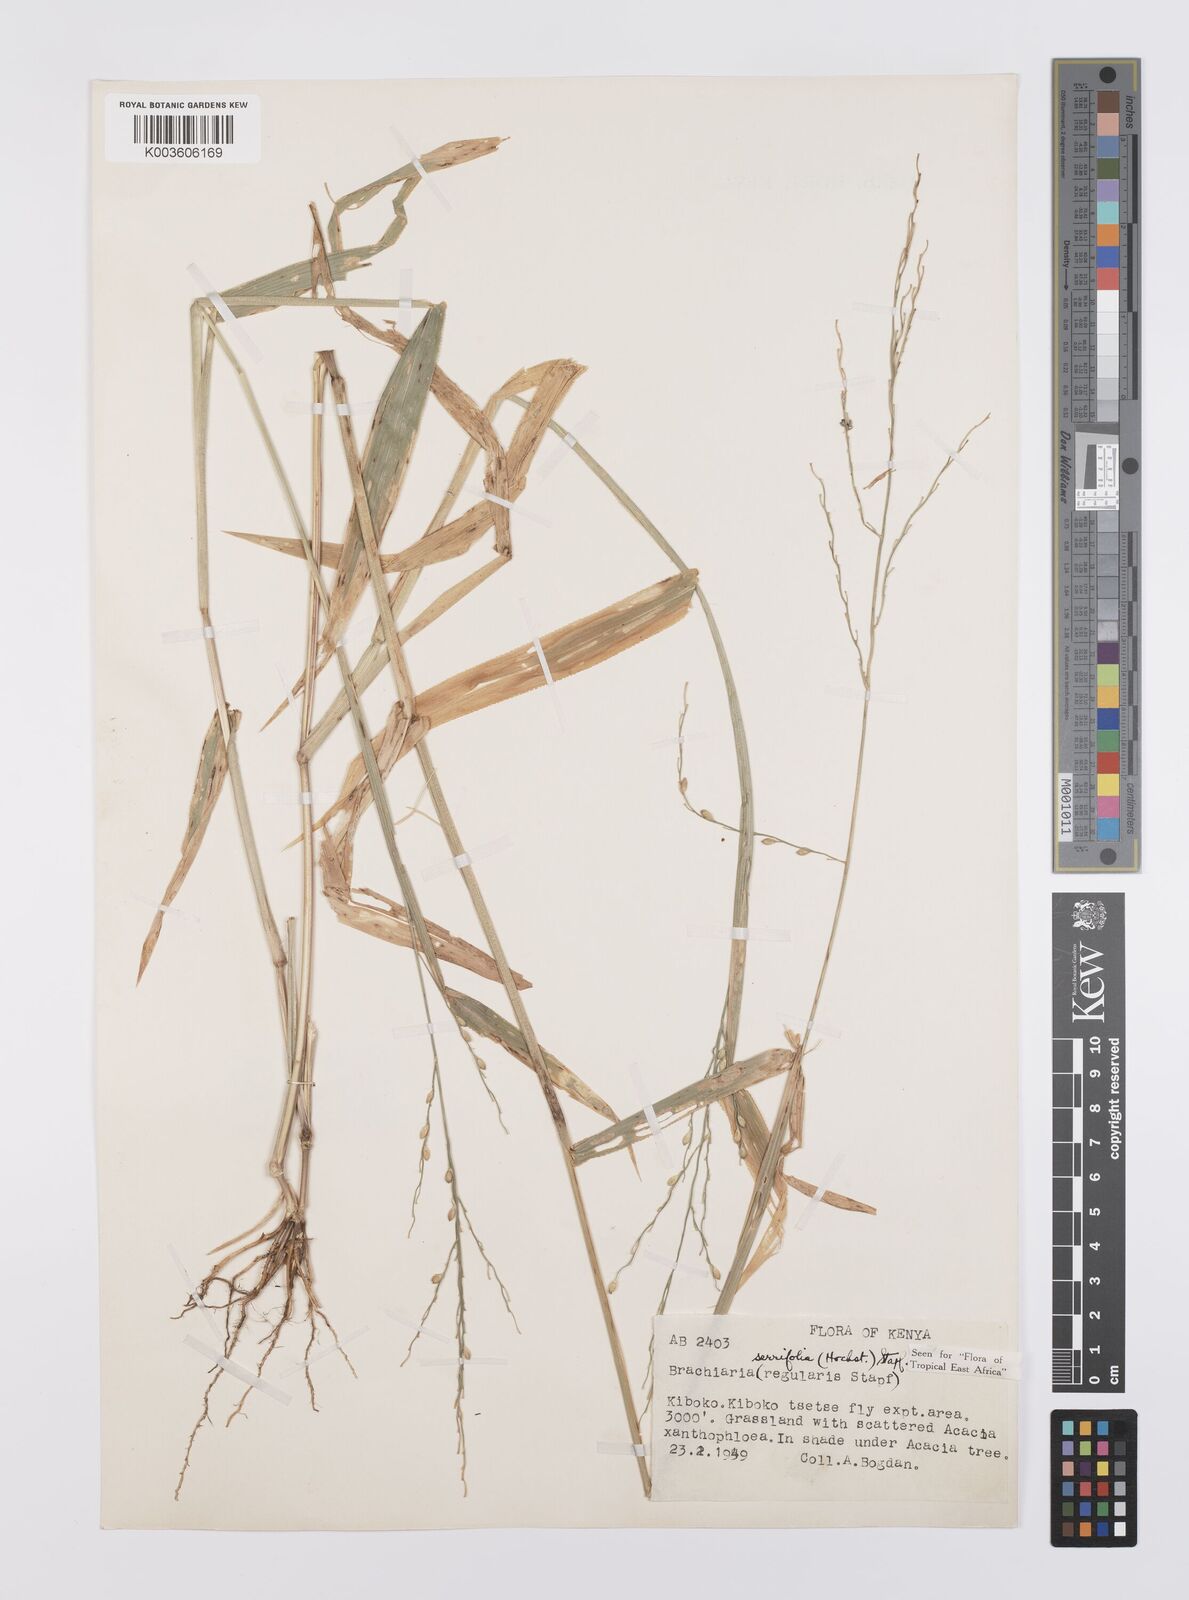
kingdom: Plantae
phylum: Tracheophyta
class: Liliopsida
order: Poales
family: Poaceae
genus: Urochloa
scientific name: Urochloa serrifolia
